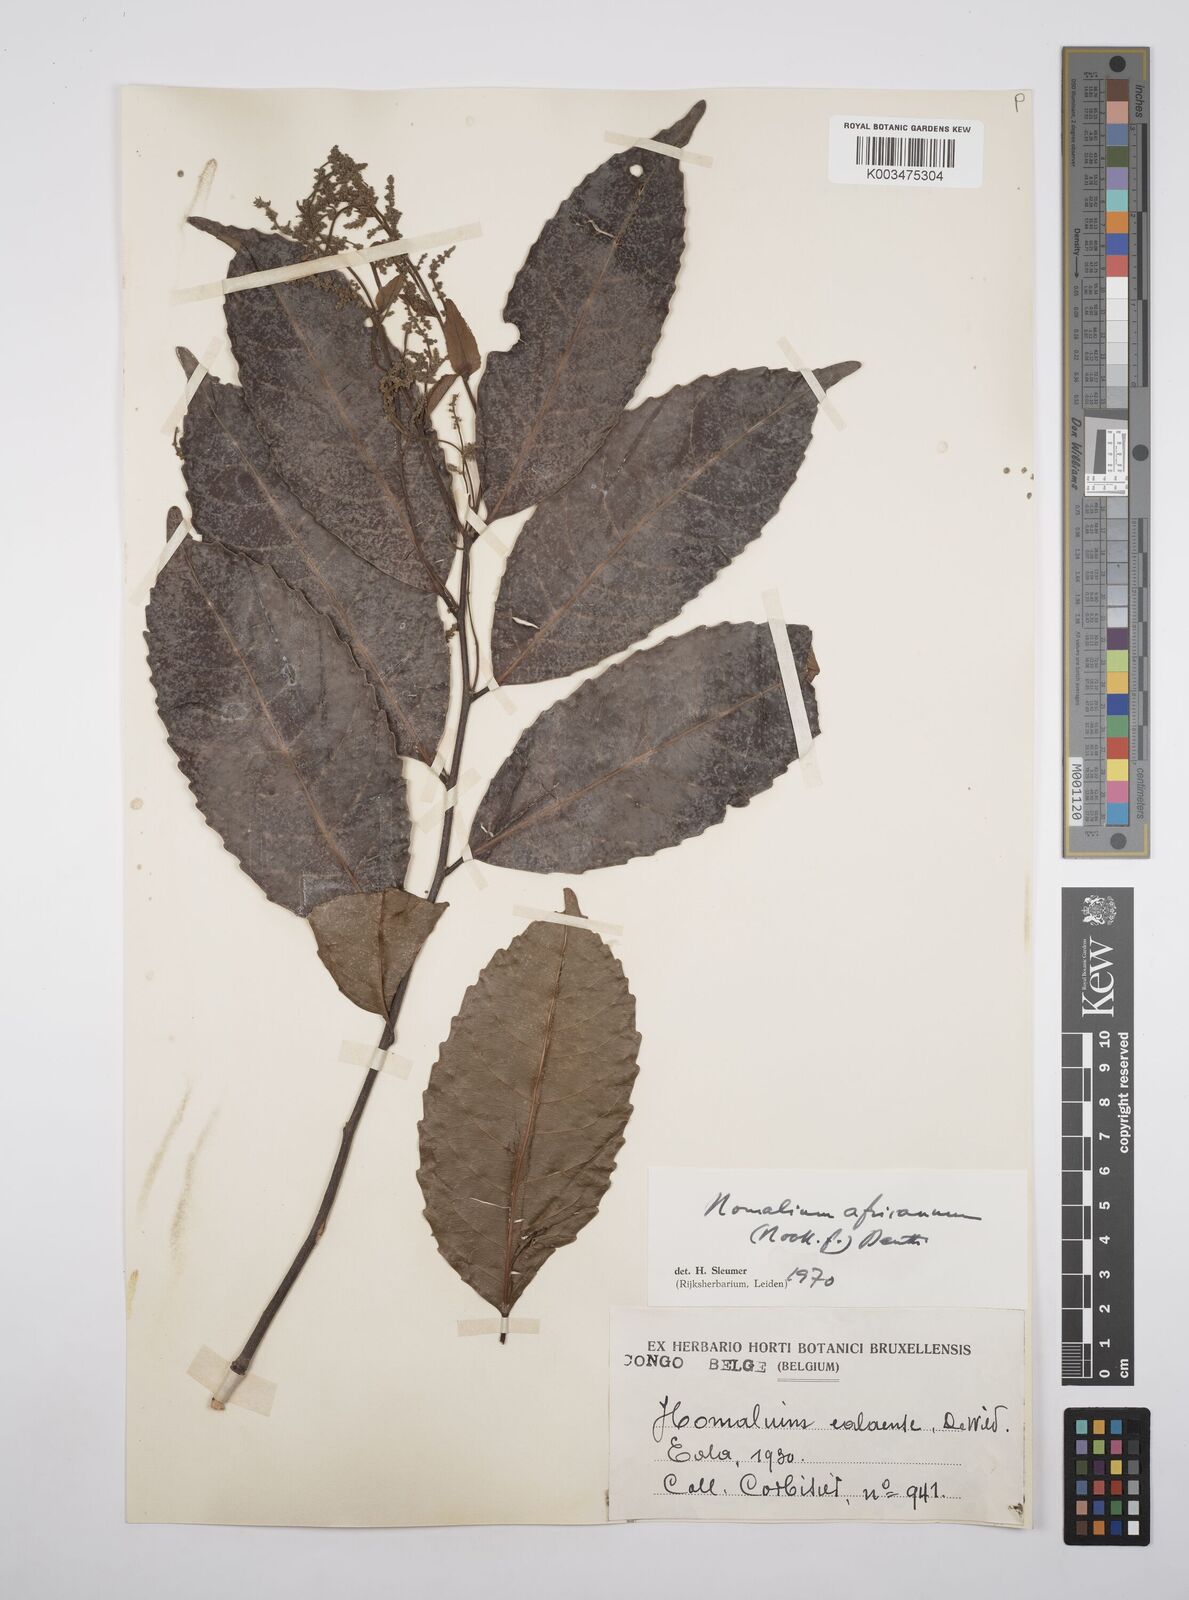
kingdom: Plantae
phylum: Tracheophyta
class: Magnoliopsida
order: Malpighiales
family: Salicaceae
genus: Homalium
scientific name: Homalium africanum
